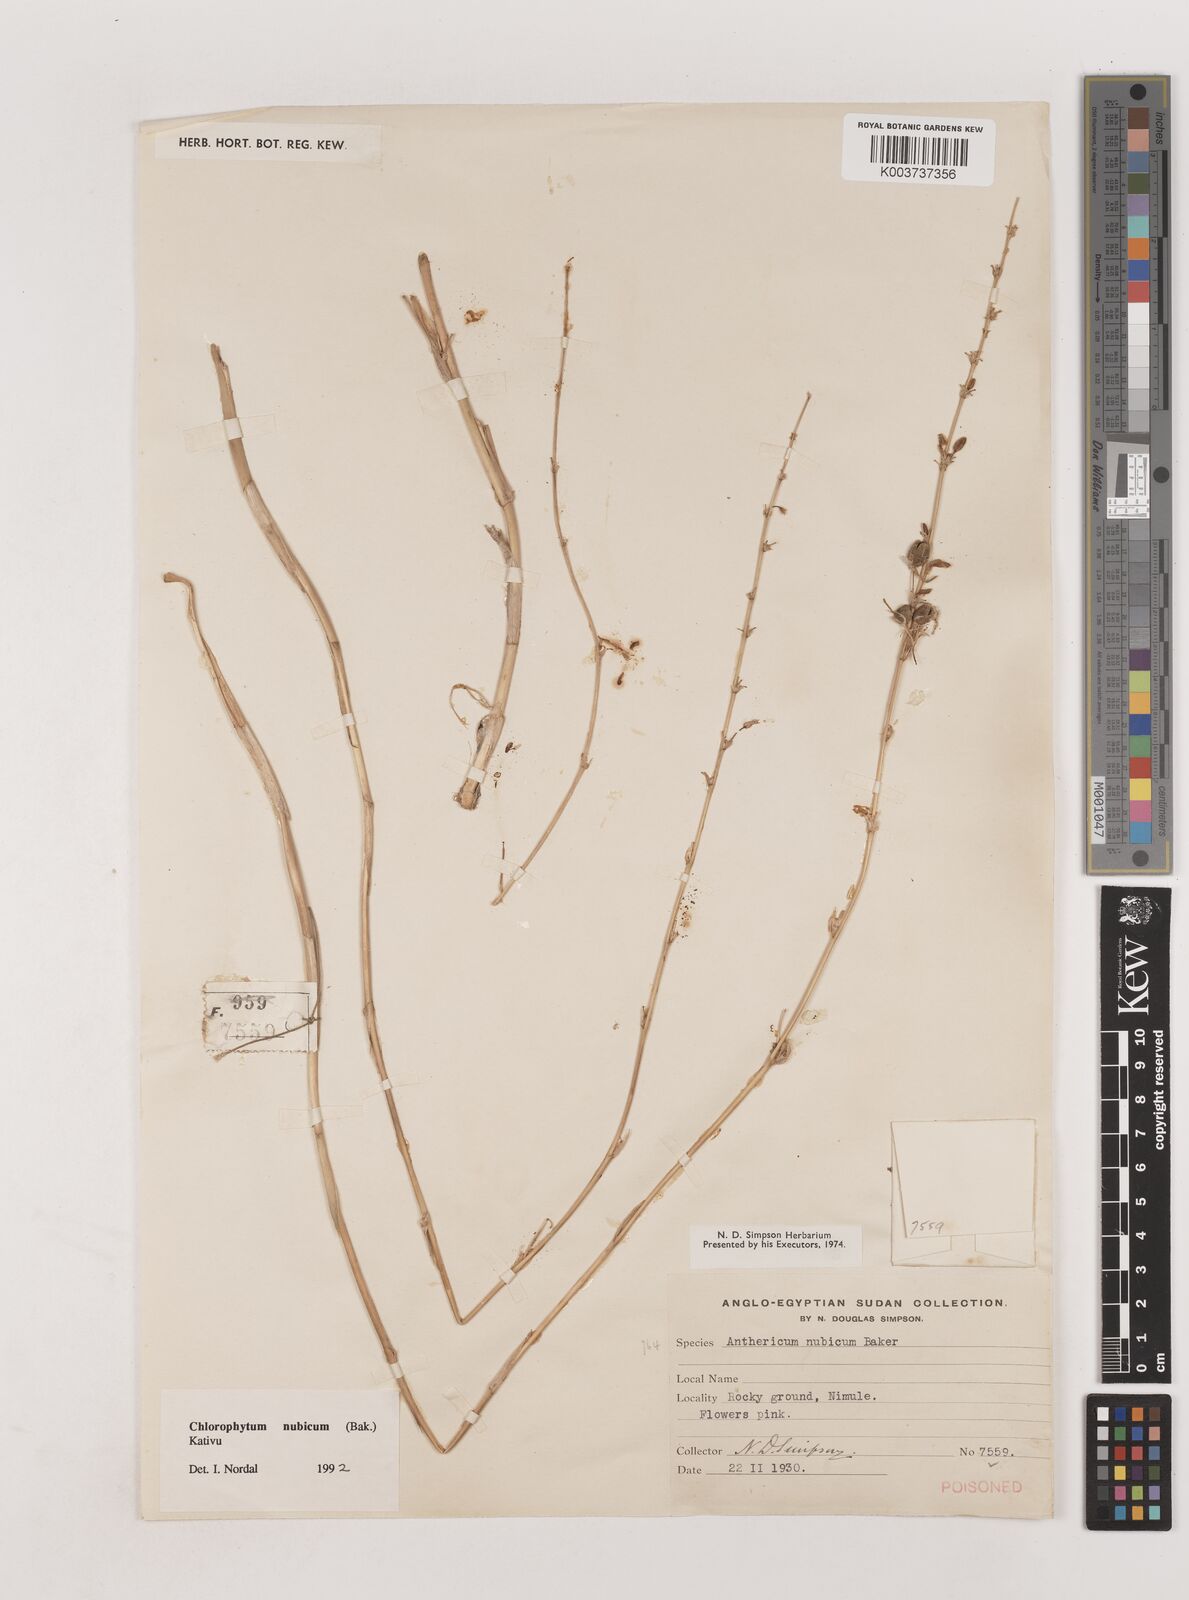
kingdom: Plantae
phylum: Tracheophyta
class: Liliopsida
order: Asparagales
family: Asparagaceae
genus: Chlorophytum
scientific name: Chlorophytum nubicum
